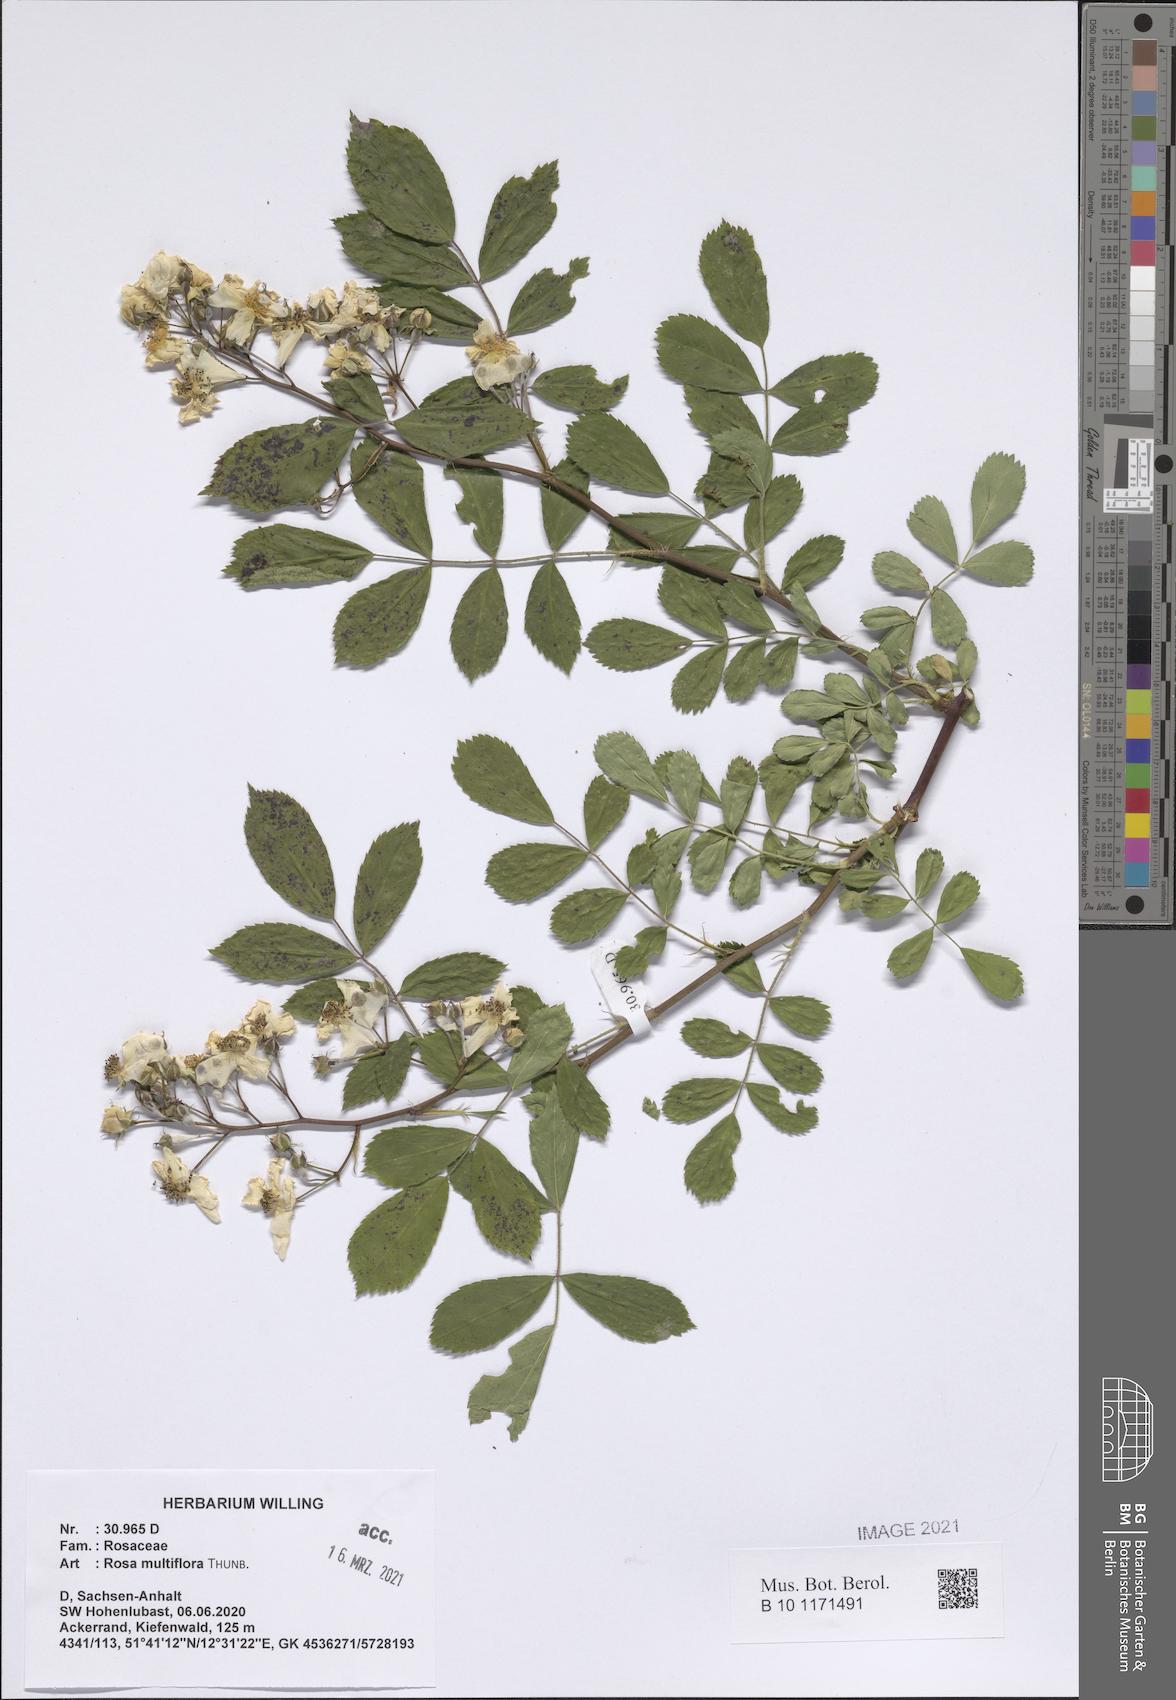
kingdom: Plantae
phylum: Tracheophyta
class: Magnoliopsida
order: Rosales
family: Rosaceae
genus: Rosa
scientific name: Rosa multiflora
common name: Multiflora rose
